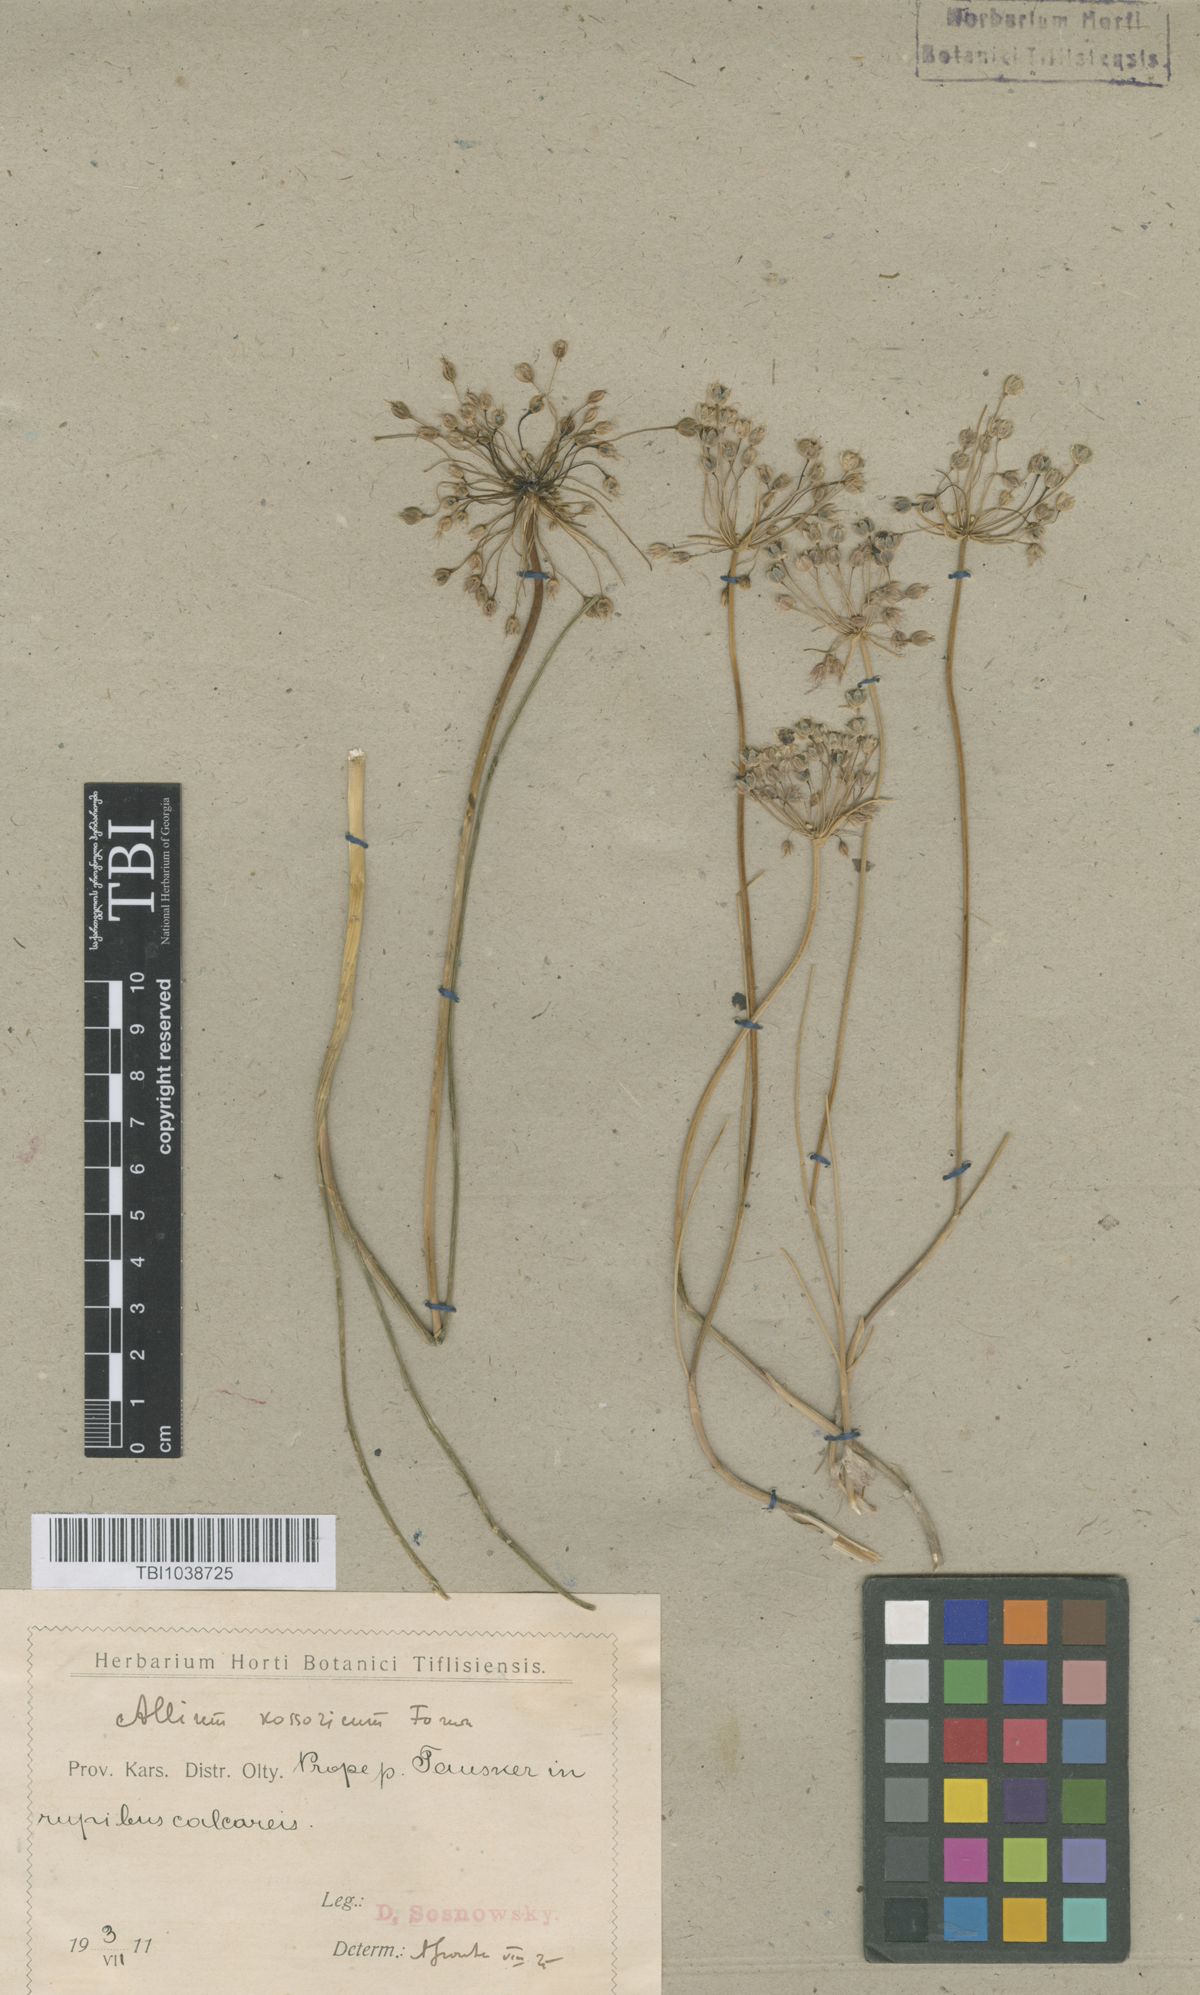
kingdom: Plantae
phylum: Tracheophyta
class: Liliopsida
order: Asparagales
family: Amaryllidaceae
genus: Allium
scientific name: Allium kossoricum
